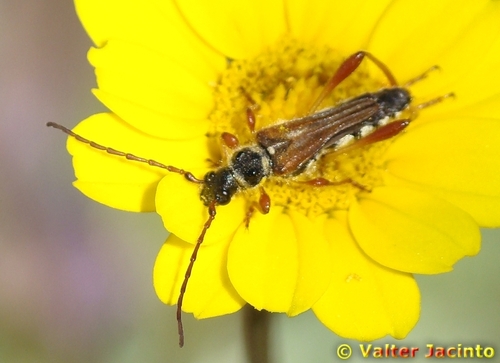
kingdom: Animalia
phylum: Arthropoda
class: Insecta
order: Coleoptera
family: Cerambycidae
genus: Stenopterus
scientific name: Stenopterus mauritanicus
